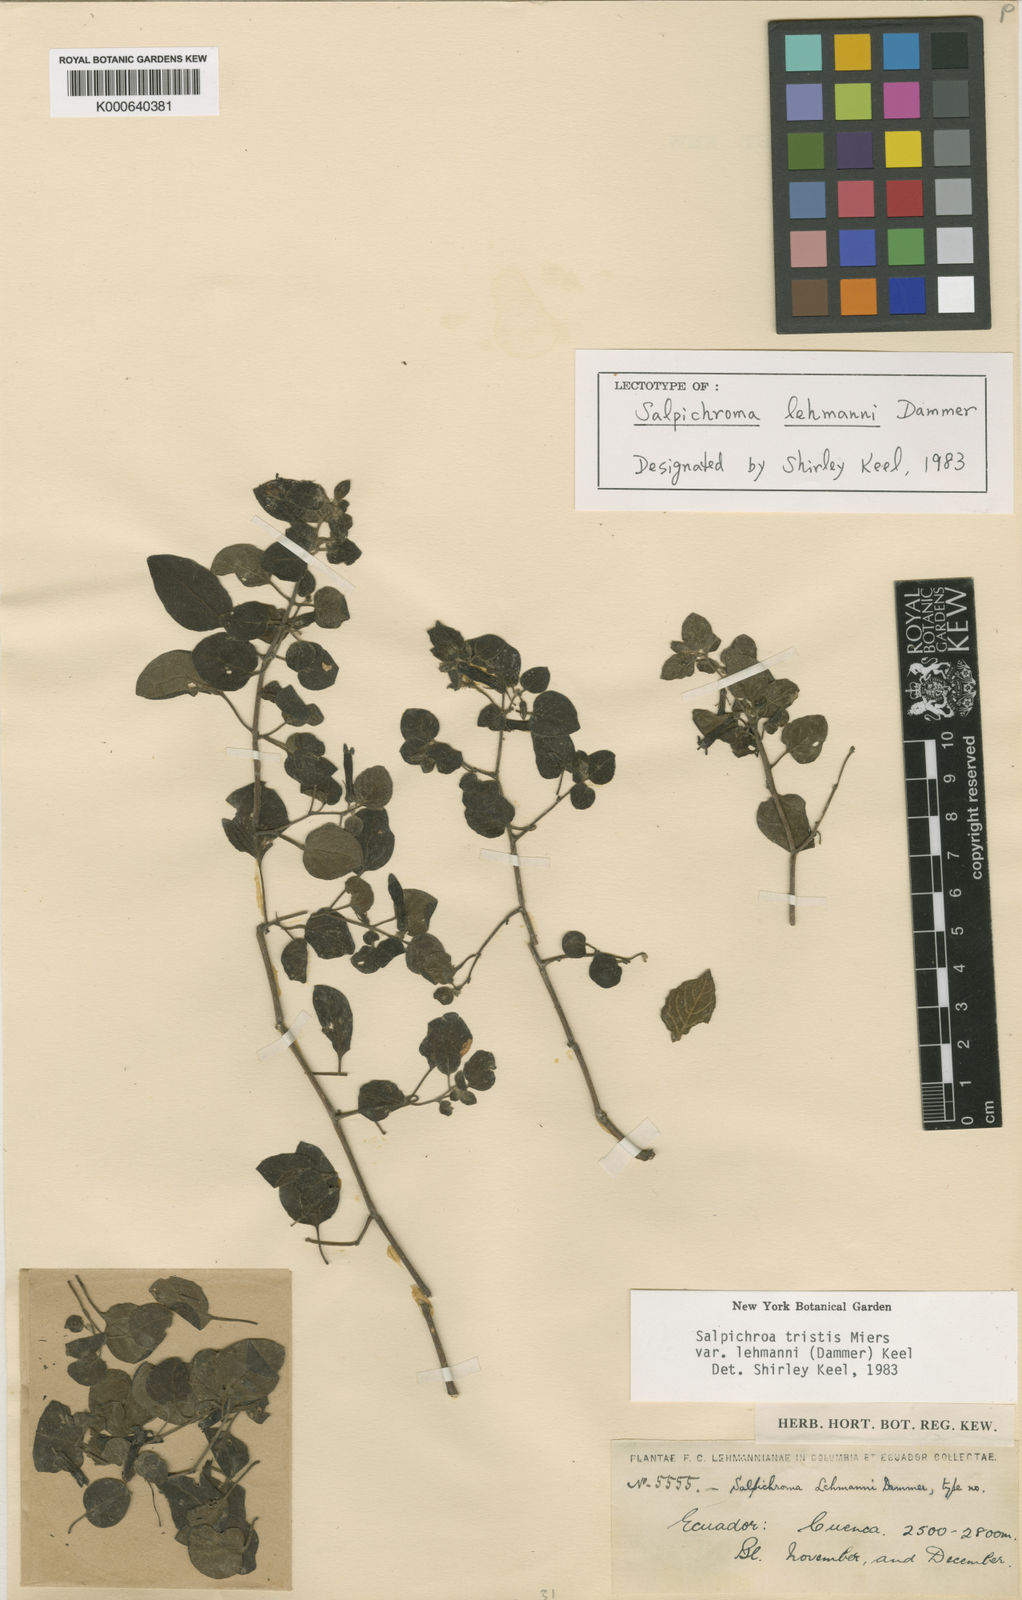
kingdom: Plantae
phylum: Tracheophyta
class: Magnoliopsida
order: Solanales
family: Solanaceae
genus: Salpichroa
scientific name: Salpichroa tristis
